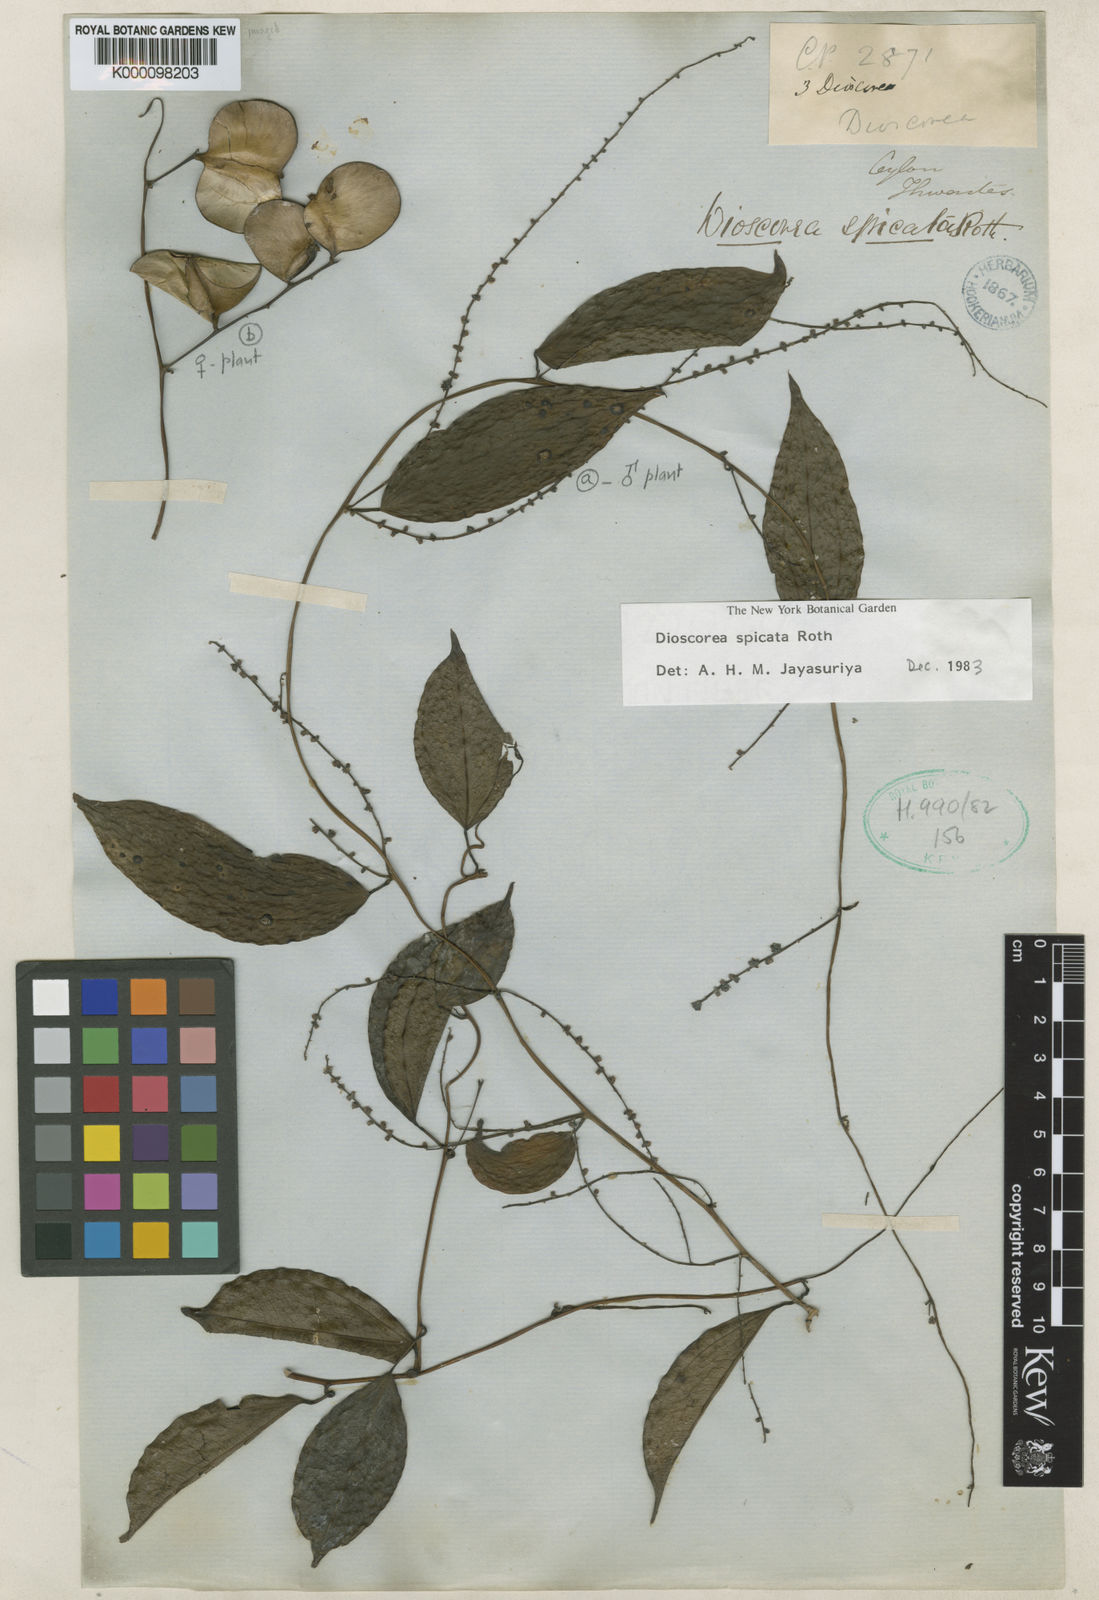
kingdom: Plantae
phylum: Tracheophyta
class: Liliopsida
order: Dioscoreales
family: Dioscoreaceae
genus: Dioscorea
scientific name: Dioscorea spicata
